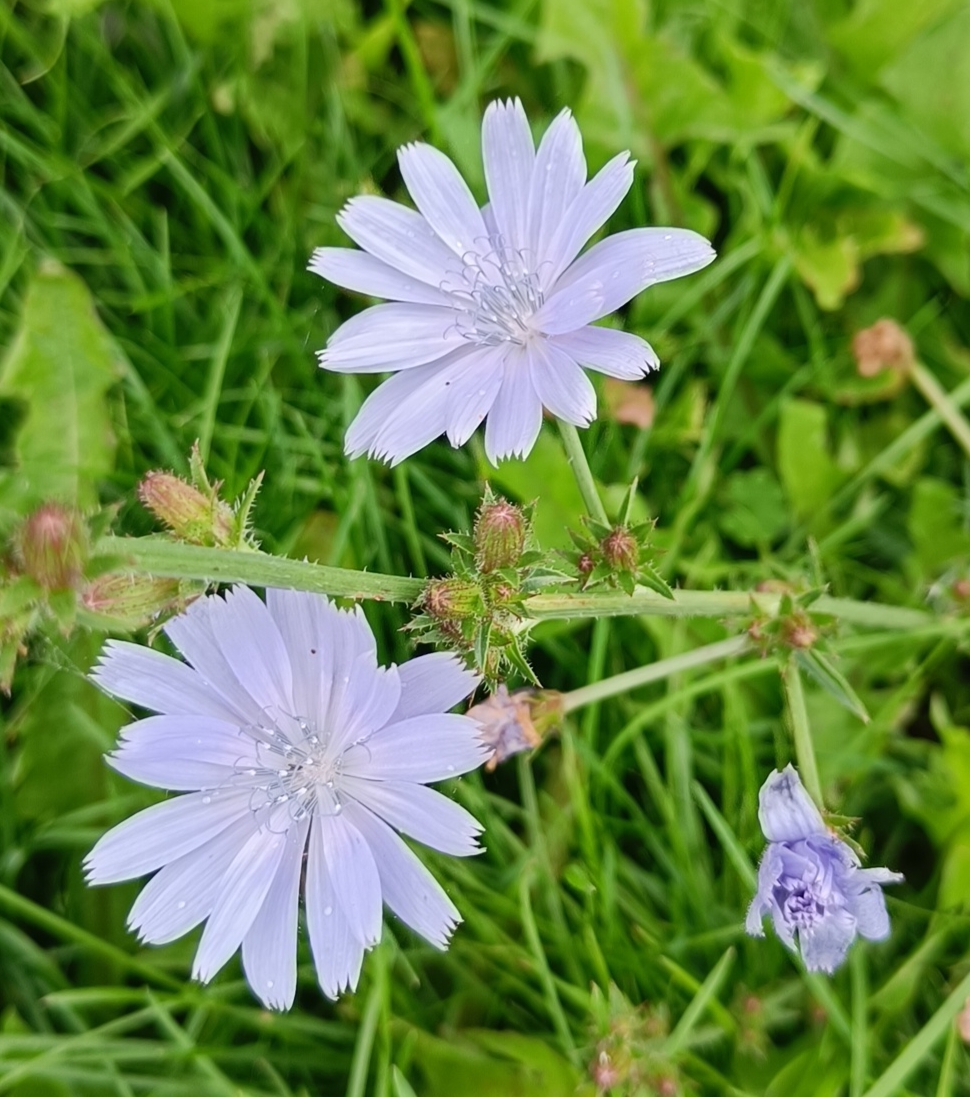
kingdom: Plantae
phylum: Tracheophyta
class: Magnoliopsida
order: Asterales
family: Asteraceae
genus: Cichorium
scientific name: Cichorium intybus
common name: Cikorie
